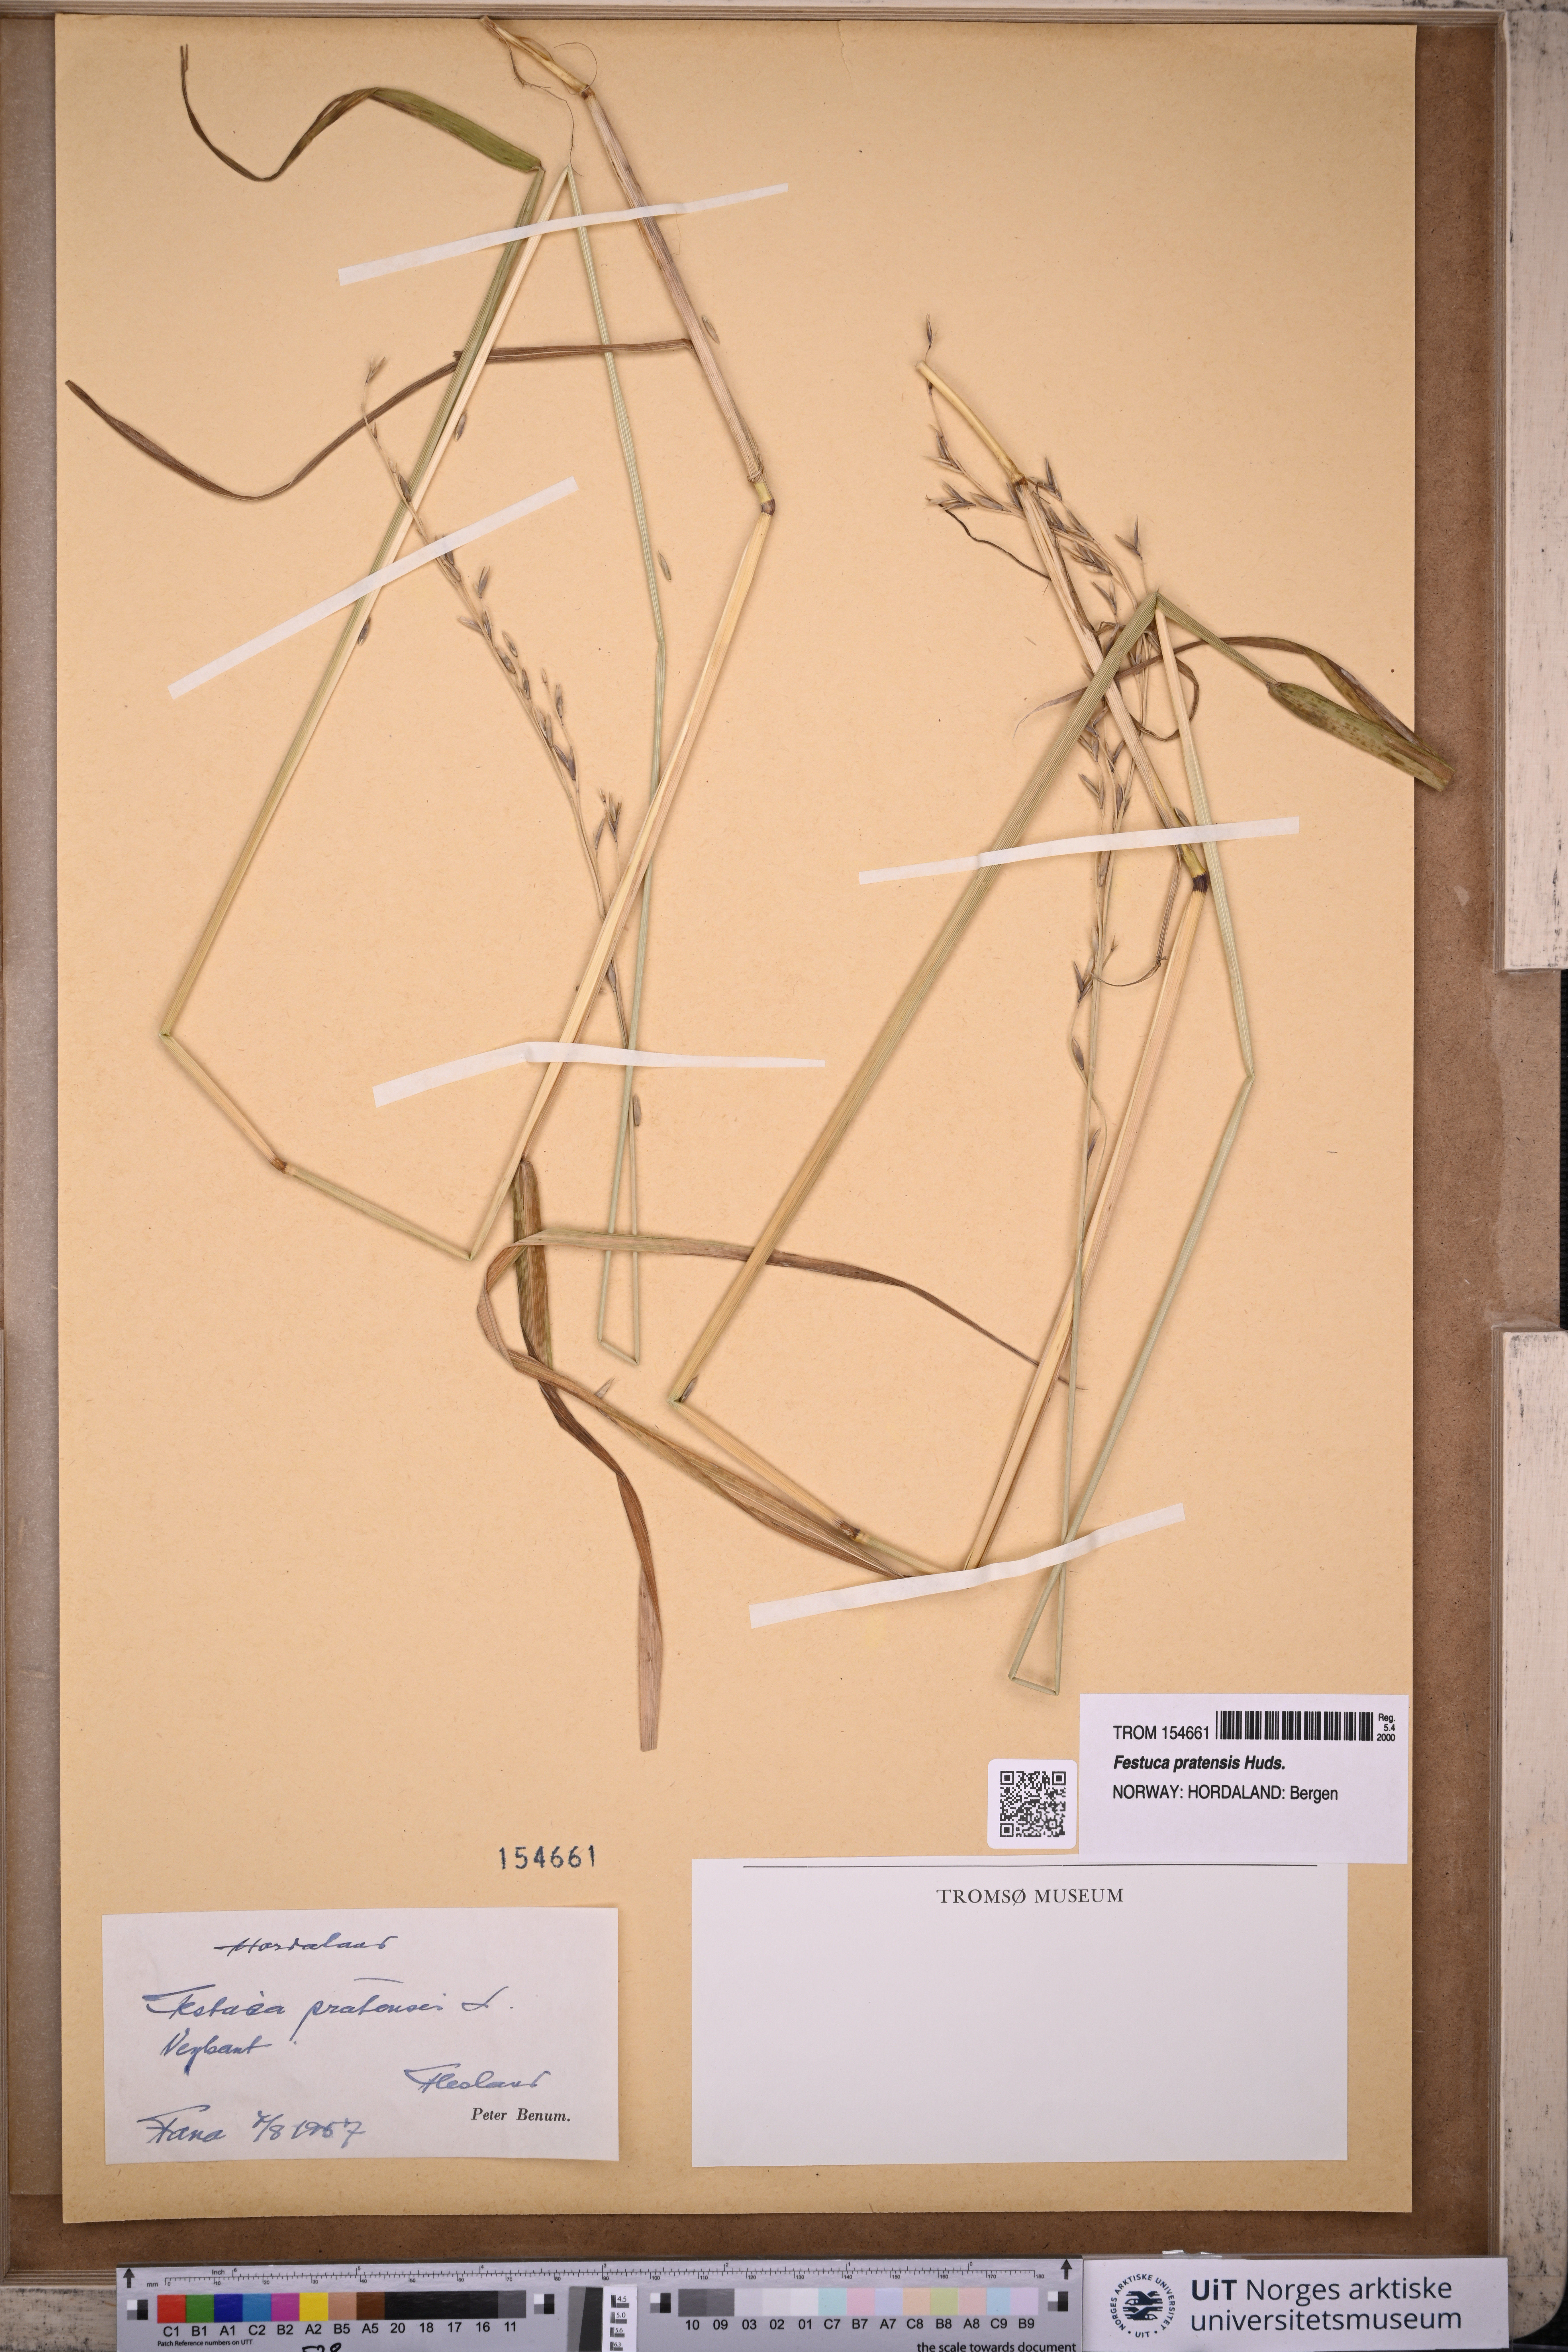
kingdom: Plantae
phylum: Tracheophyta
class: Liliopsida
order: Poales
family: Poaceae
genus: Lolium
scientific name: Lolium pratense
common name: Dover grass
